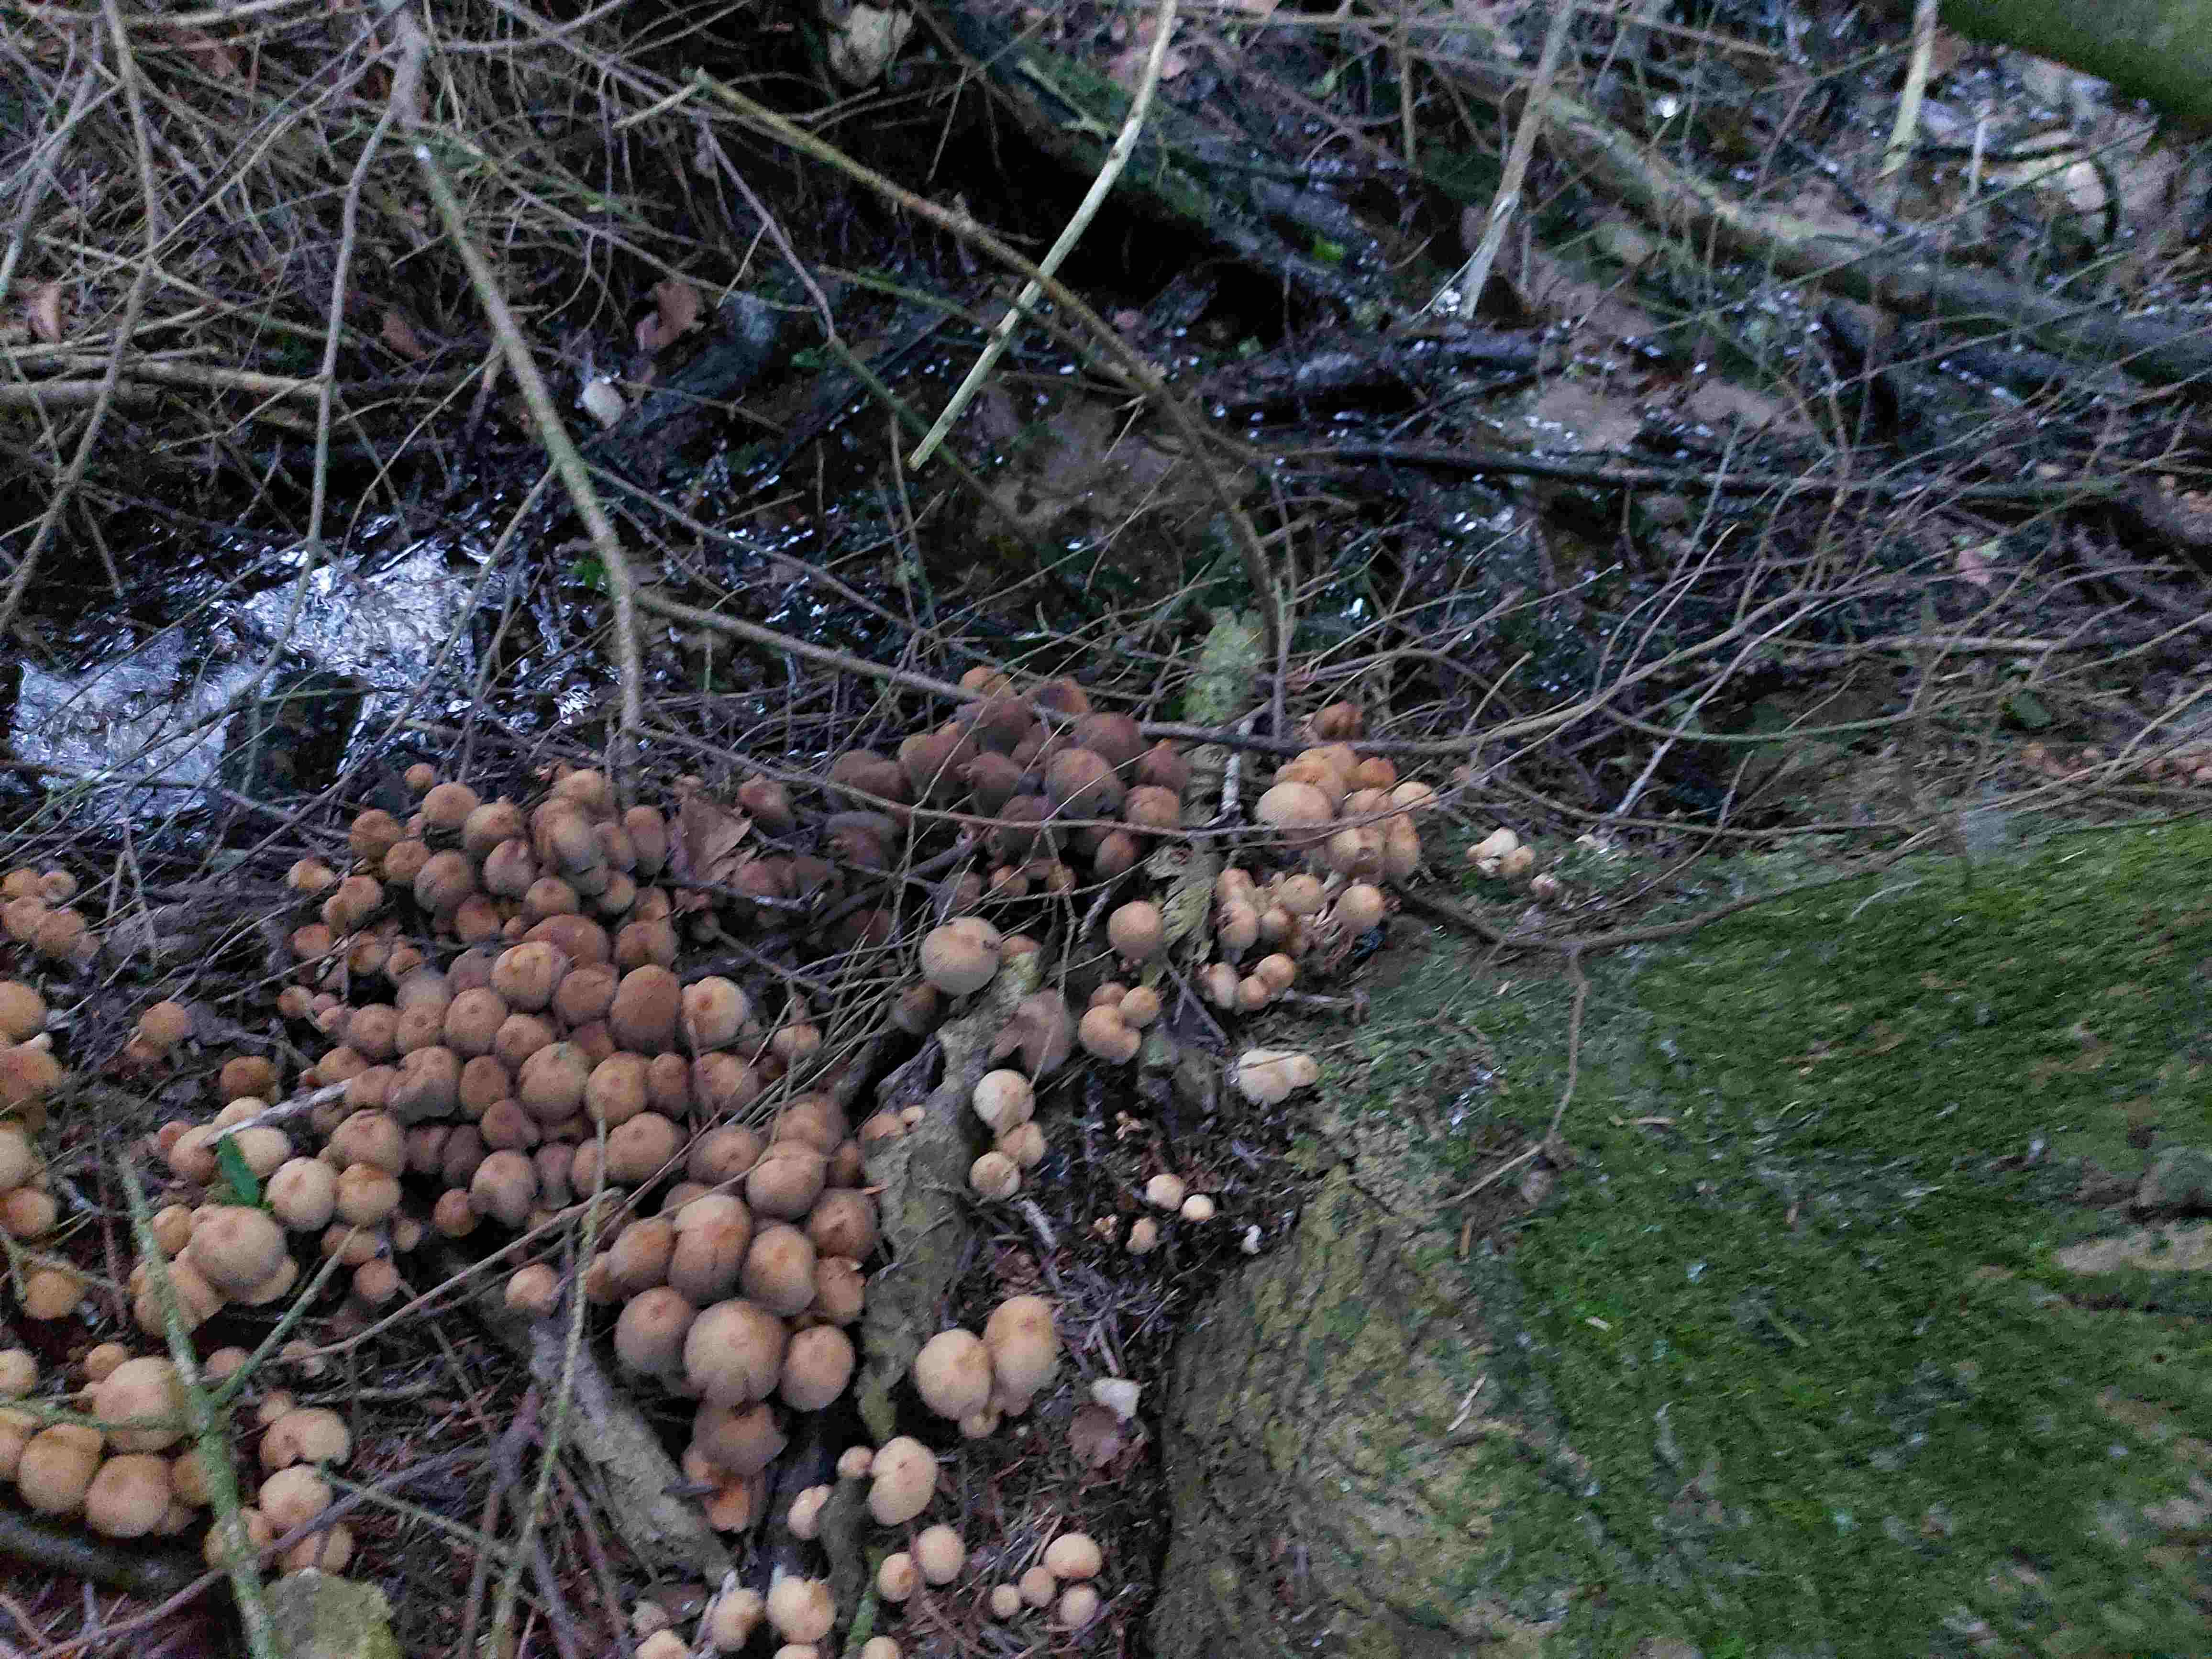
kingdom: Fungi
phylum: Basidiomycota
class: Agaricomycetes
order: Agaricales
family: Psathyrellaceae
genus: Coprinellus
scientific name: Coprinellus micaceus
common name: glimmer-blækhat
